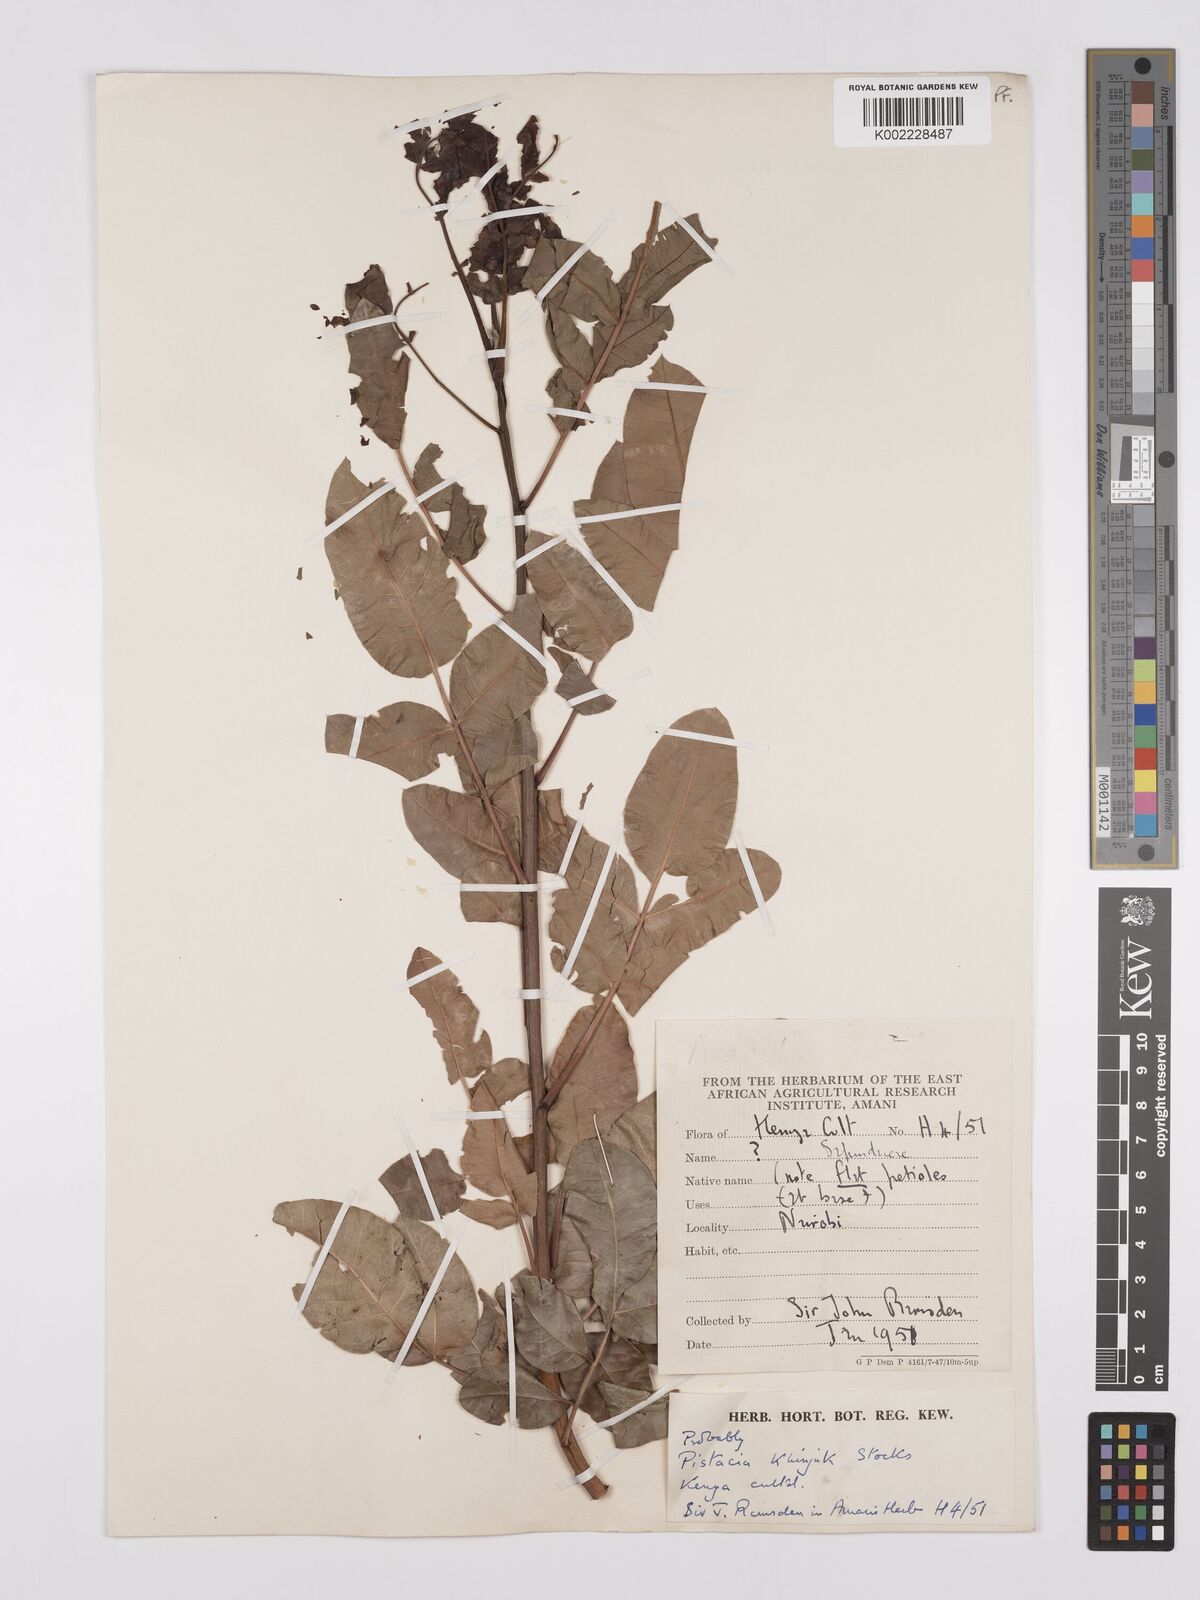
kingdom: Plantae
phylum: Tracheophyta
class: Magnoliopsida
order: Sapindales
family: Anacardiaceae
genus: Pistacia
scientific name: Pistacia khinjuk
